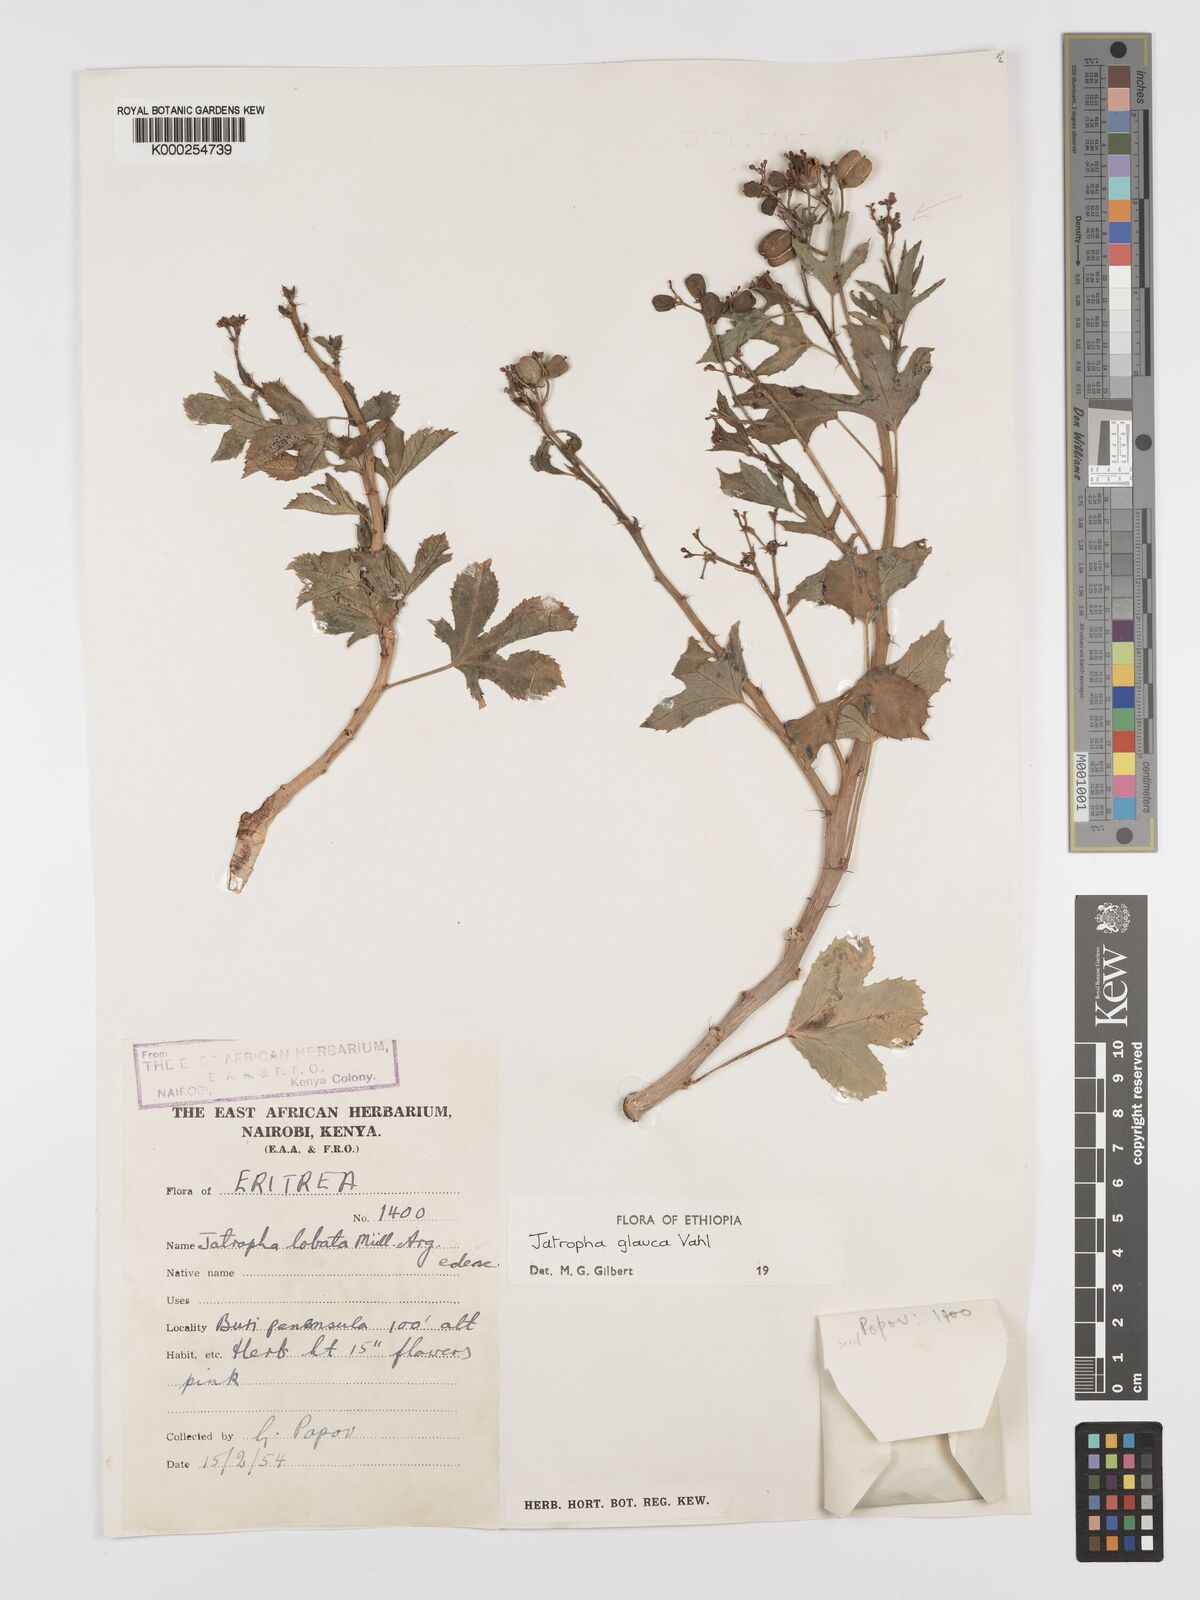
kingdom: Plantae
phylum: Tracheophyta
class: Magnoliopsida
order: Malpighiales
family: Euphorbiaceae
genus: Jatropha
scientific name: Jatropha glauca
